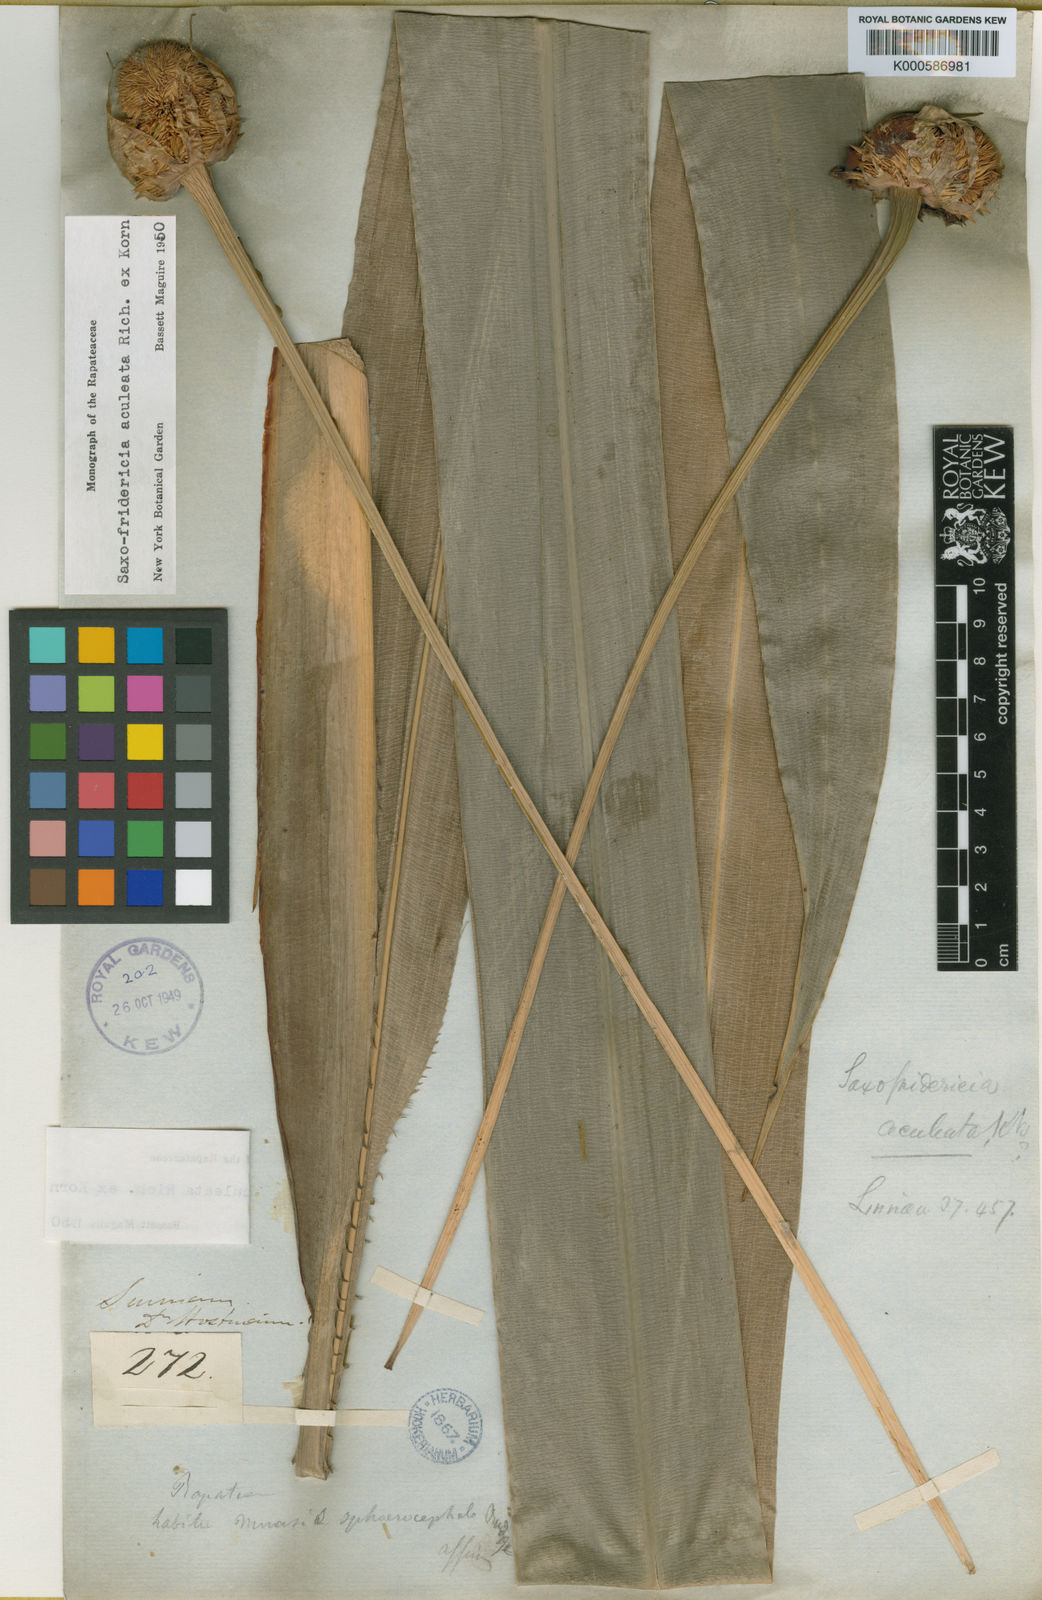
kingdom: Plantae
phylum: Tracheophyta
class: Liliopsida
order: Poales
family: Rapateaceae
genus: Saxofridericia
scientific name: Saxofridericia
